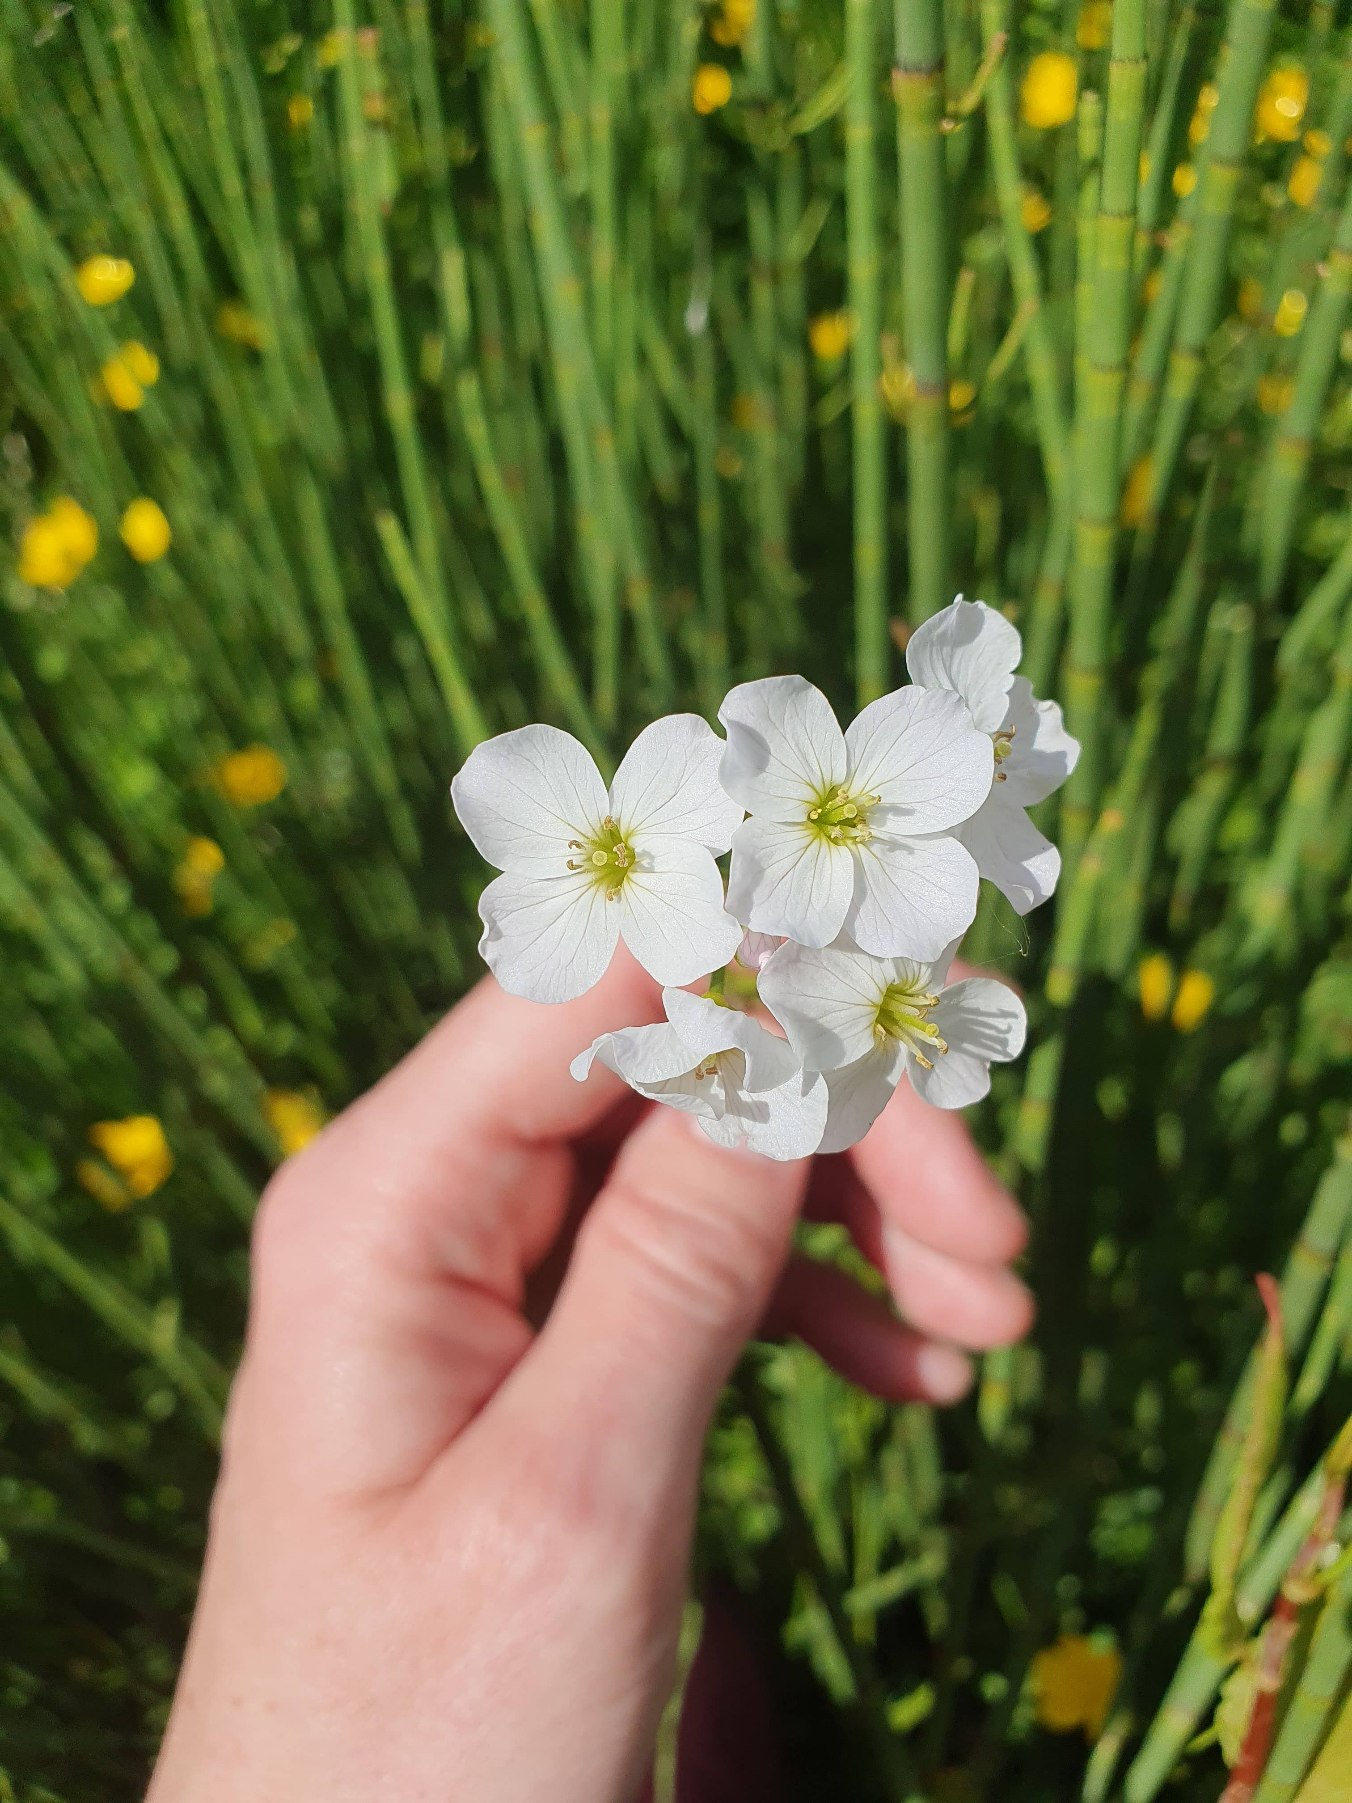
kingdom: Plantae
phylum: Tracheophyta
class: Magnoliopsida
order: Brassicales
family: Brassicaceae
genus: Cardamine
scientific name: Cardamine pratensis
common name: Engkarse
